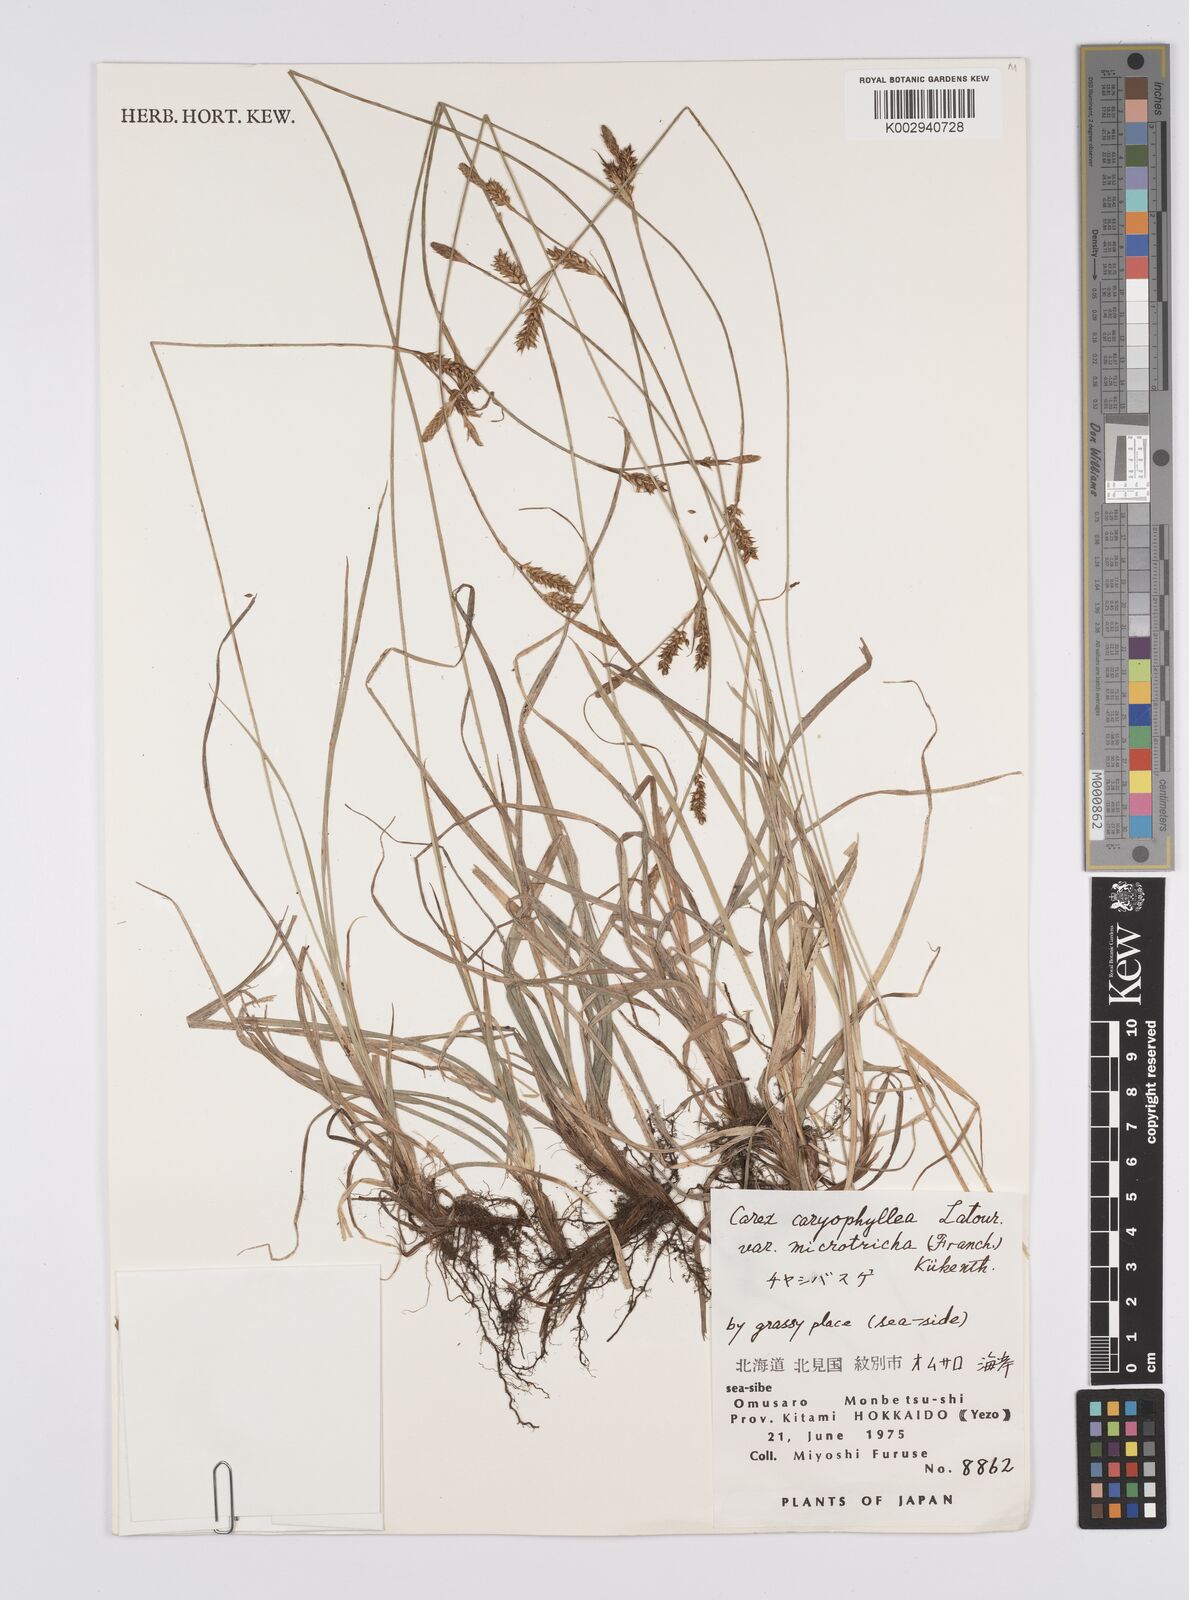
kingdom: Plantae
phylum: Tracheophyta
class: Liliopsida
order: Poales
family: Cyperaceae
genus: Carex
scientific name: Carex caryophyllea
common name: Spring sedge
